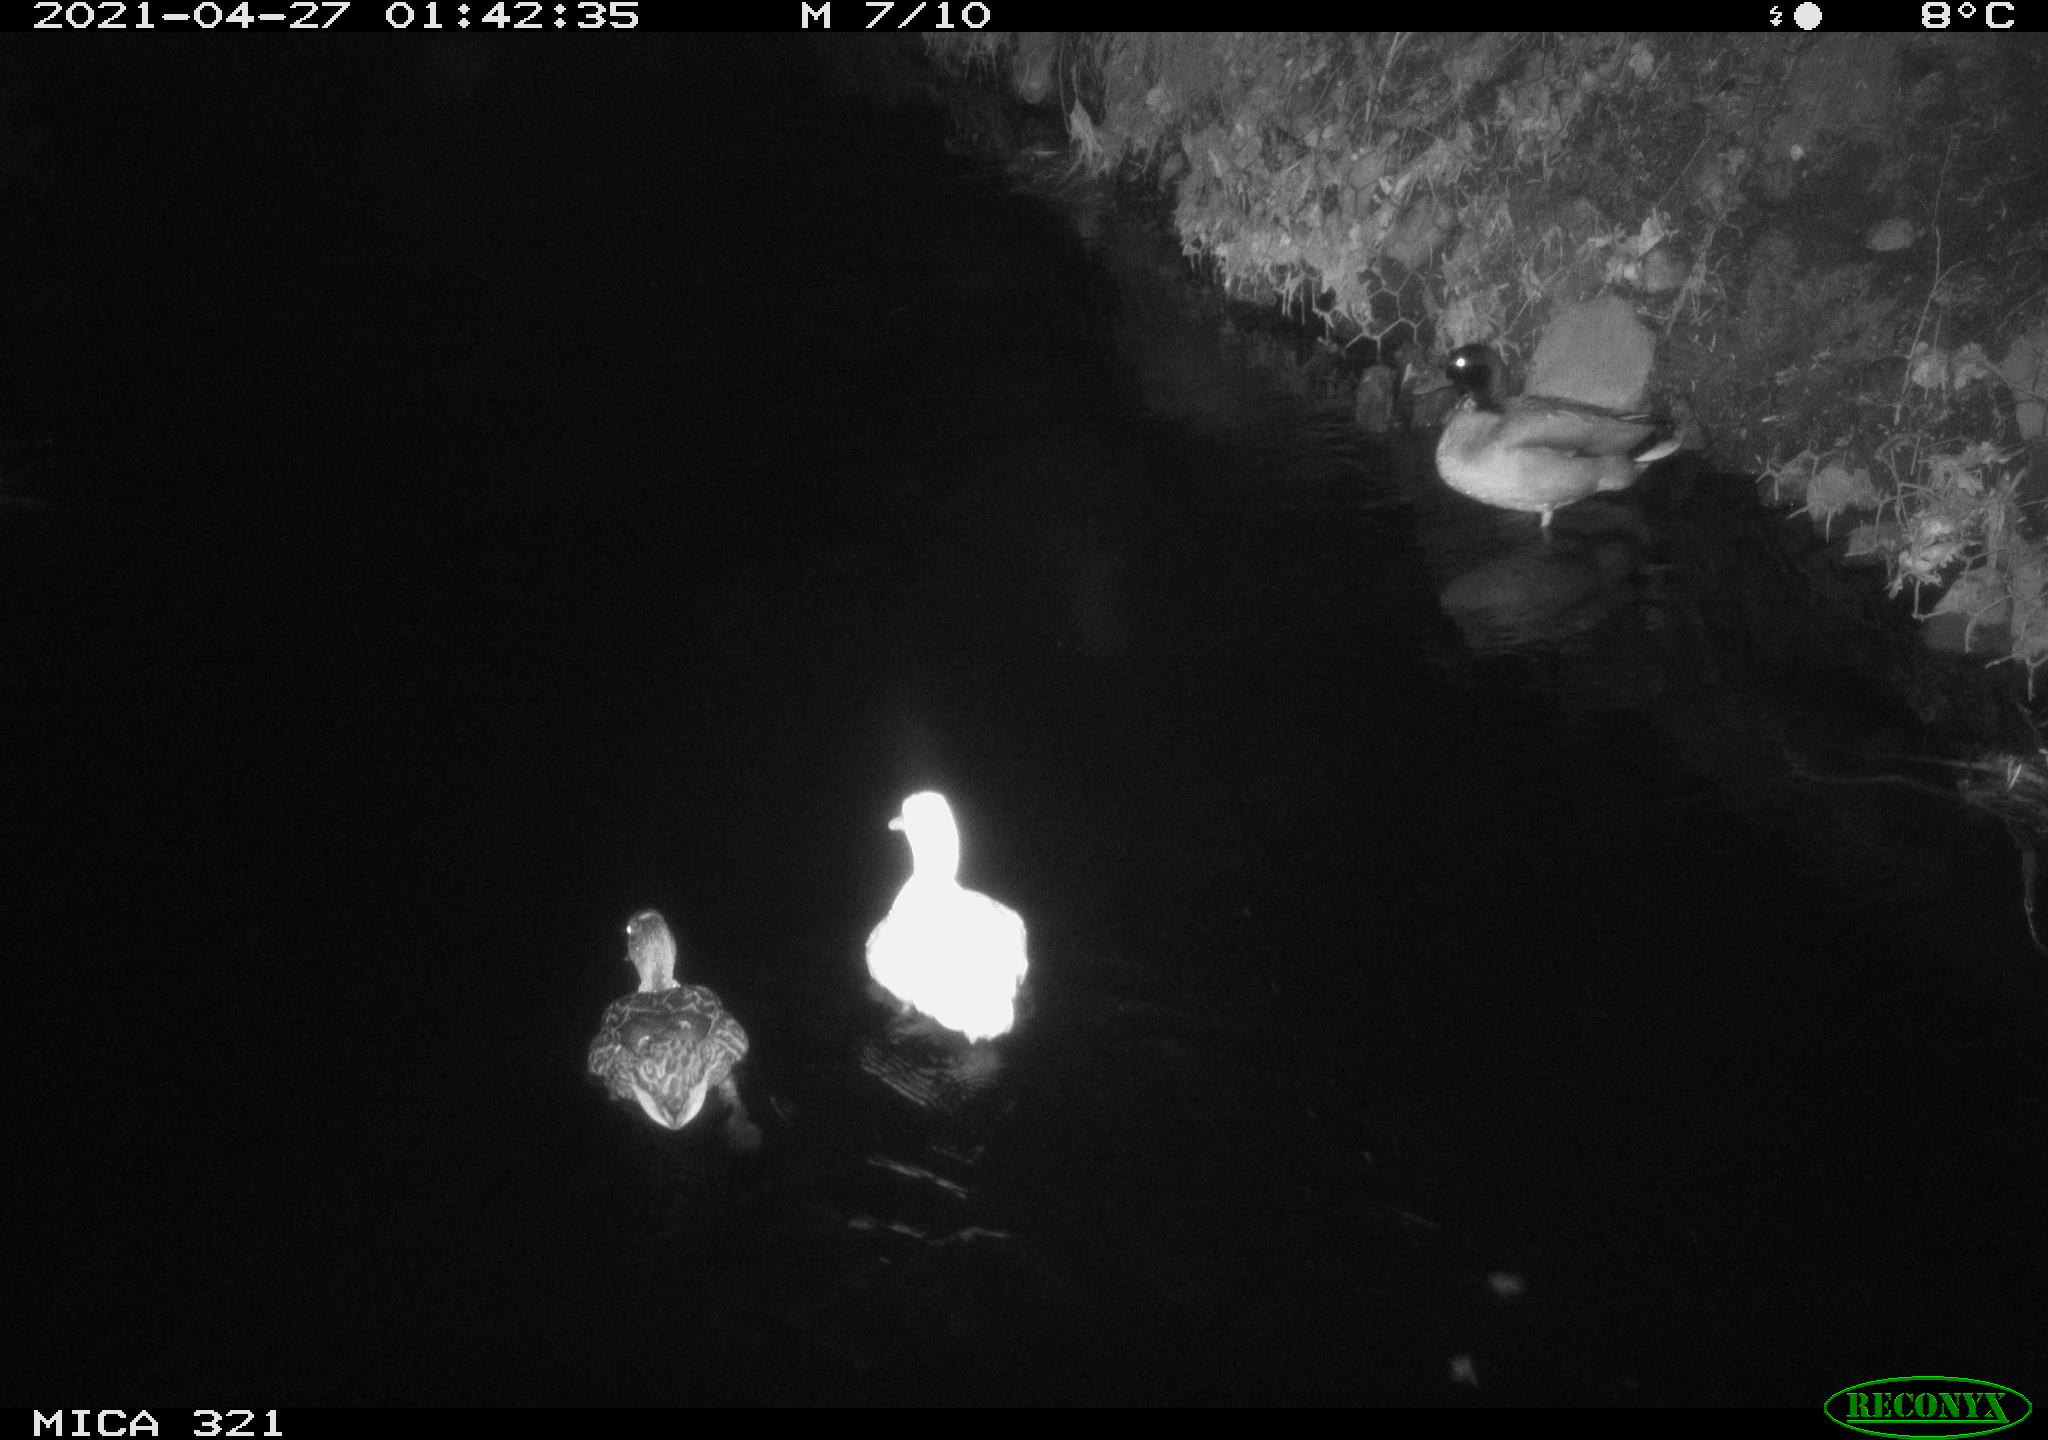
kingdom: Animalia
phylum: Chordata
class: Aves
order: Anseriformes
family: Anatidae
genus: Anas
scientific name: Anas
